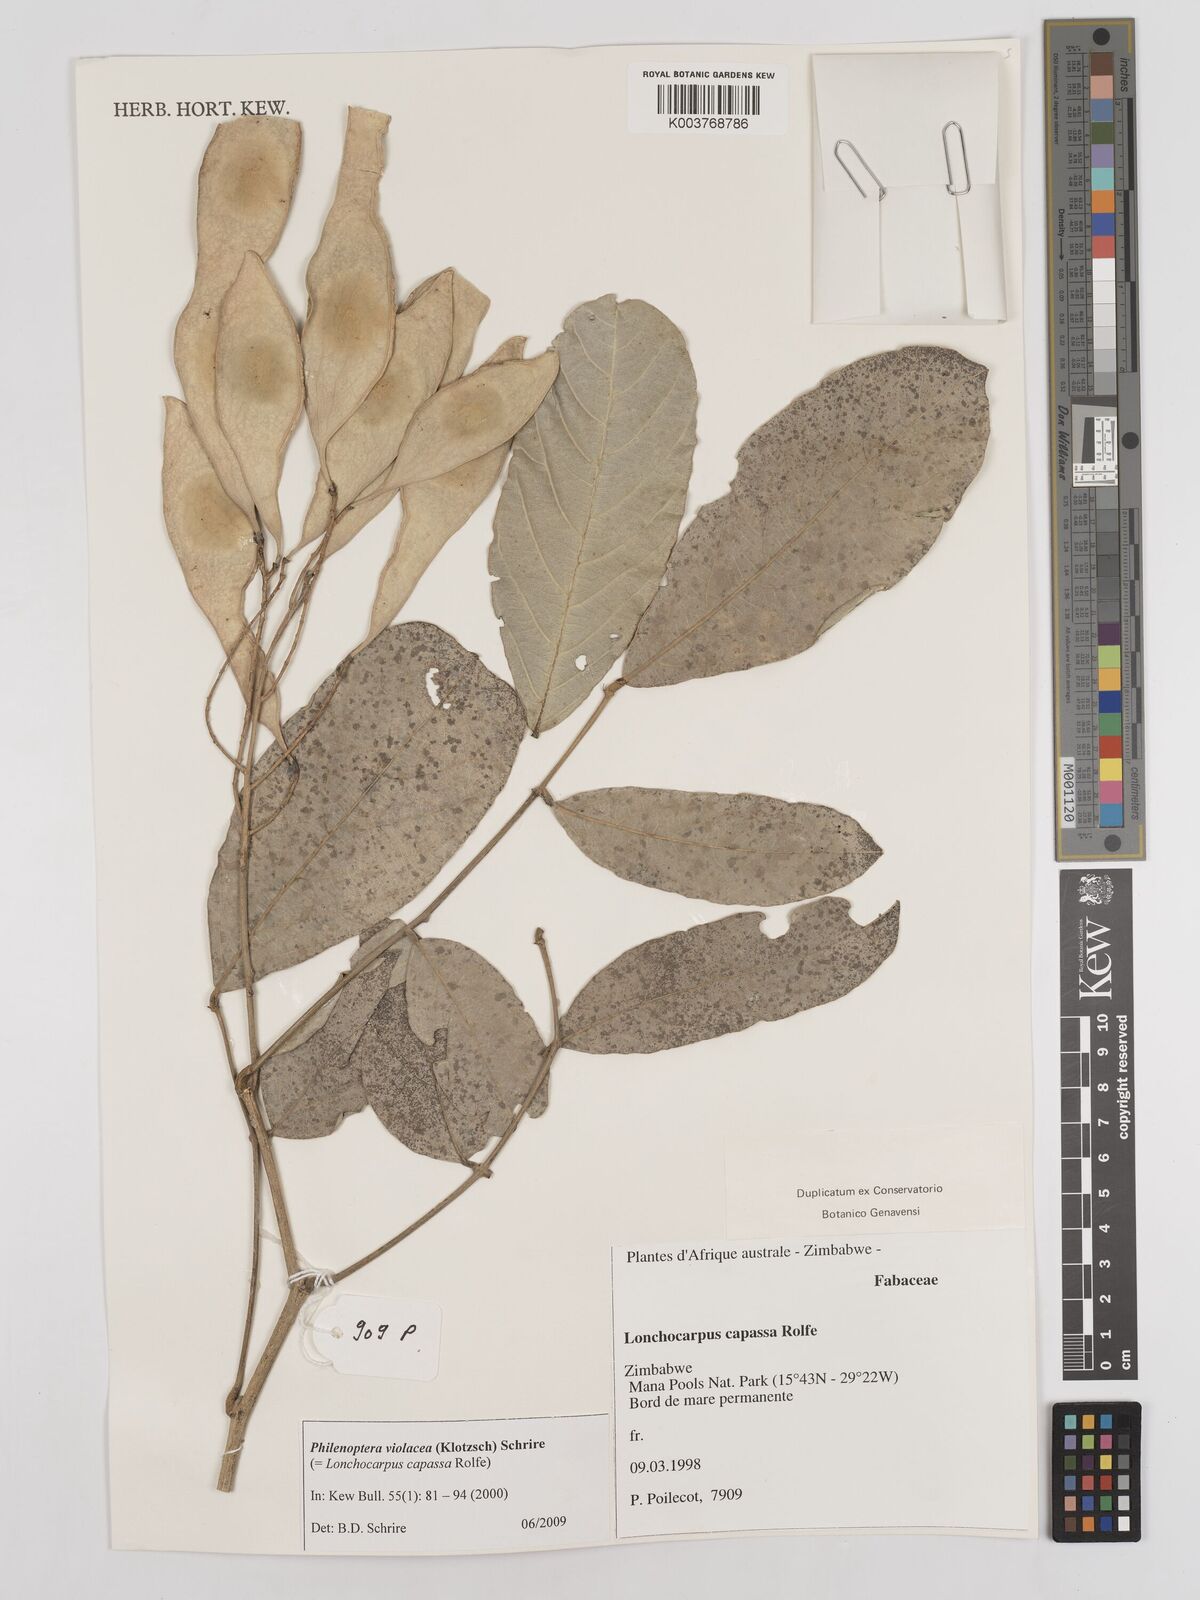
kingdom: Plantae
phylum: Tracheophyta
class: Magnoliopsida
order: Fabales
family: Fabaceae
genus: Philenoptera
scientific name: Philenoptera violacea
